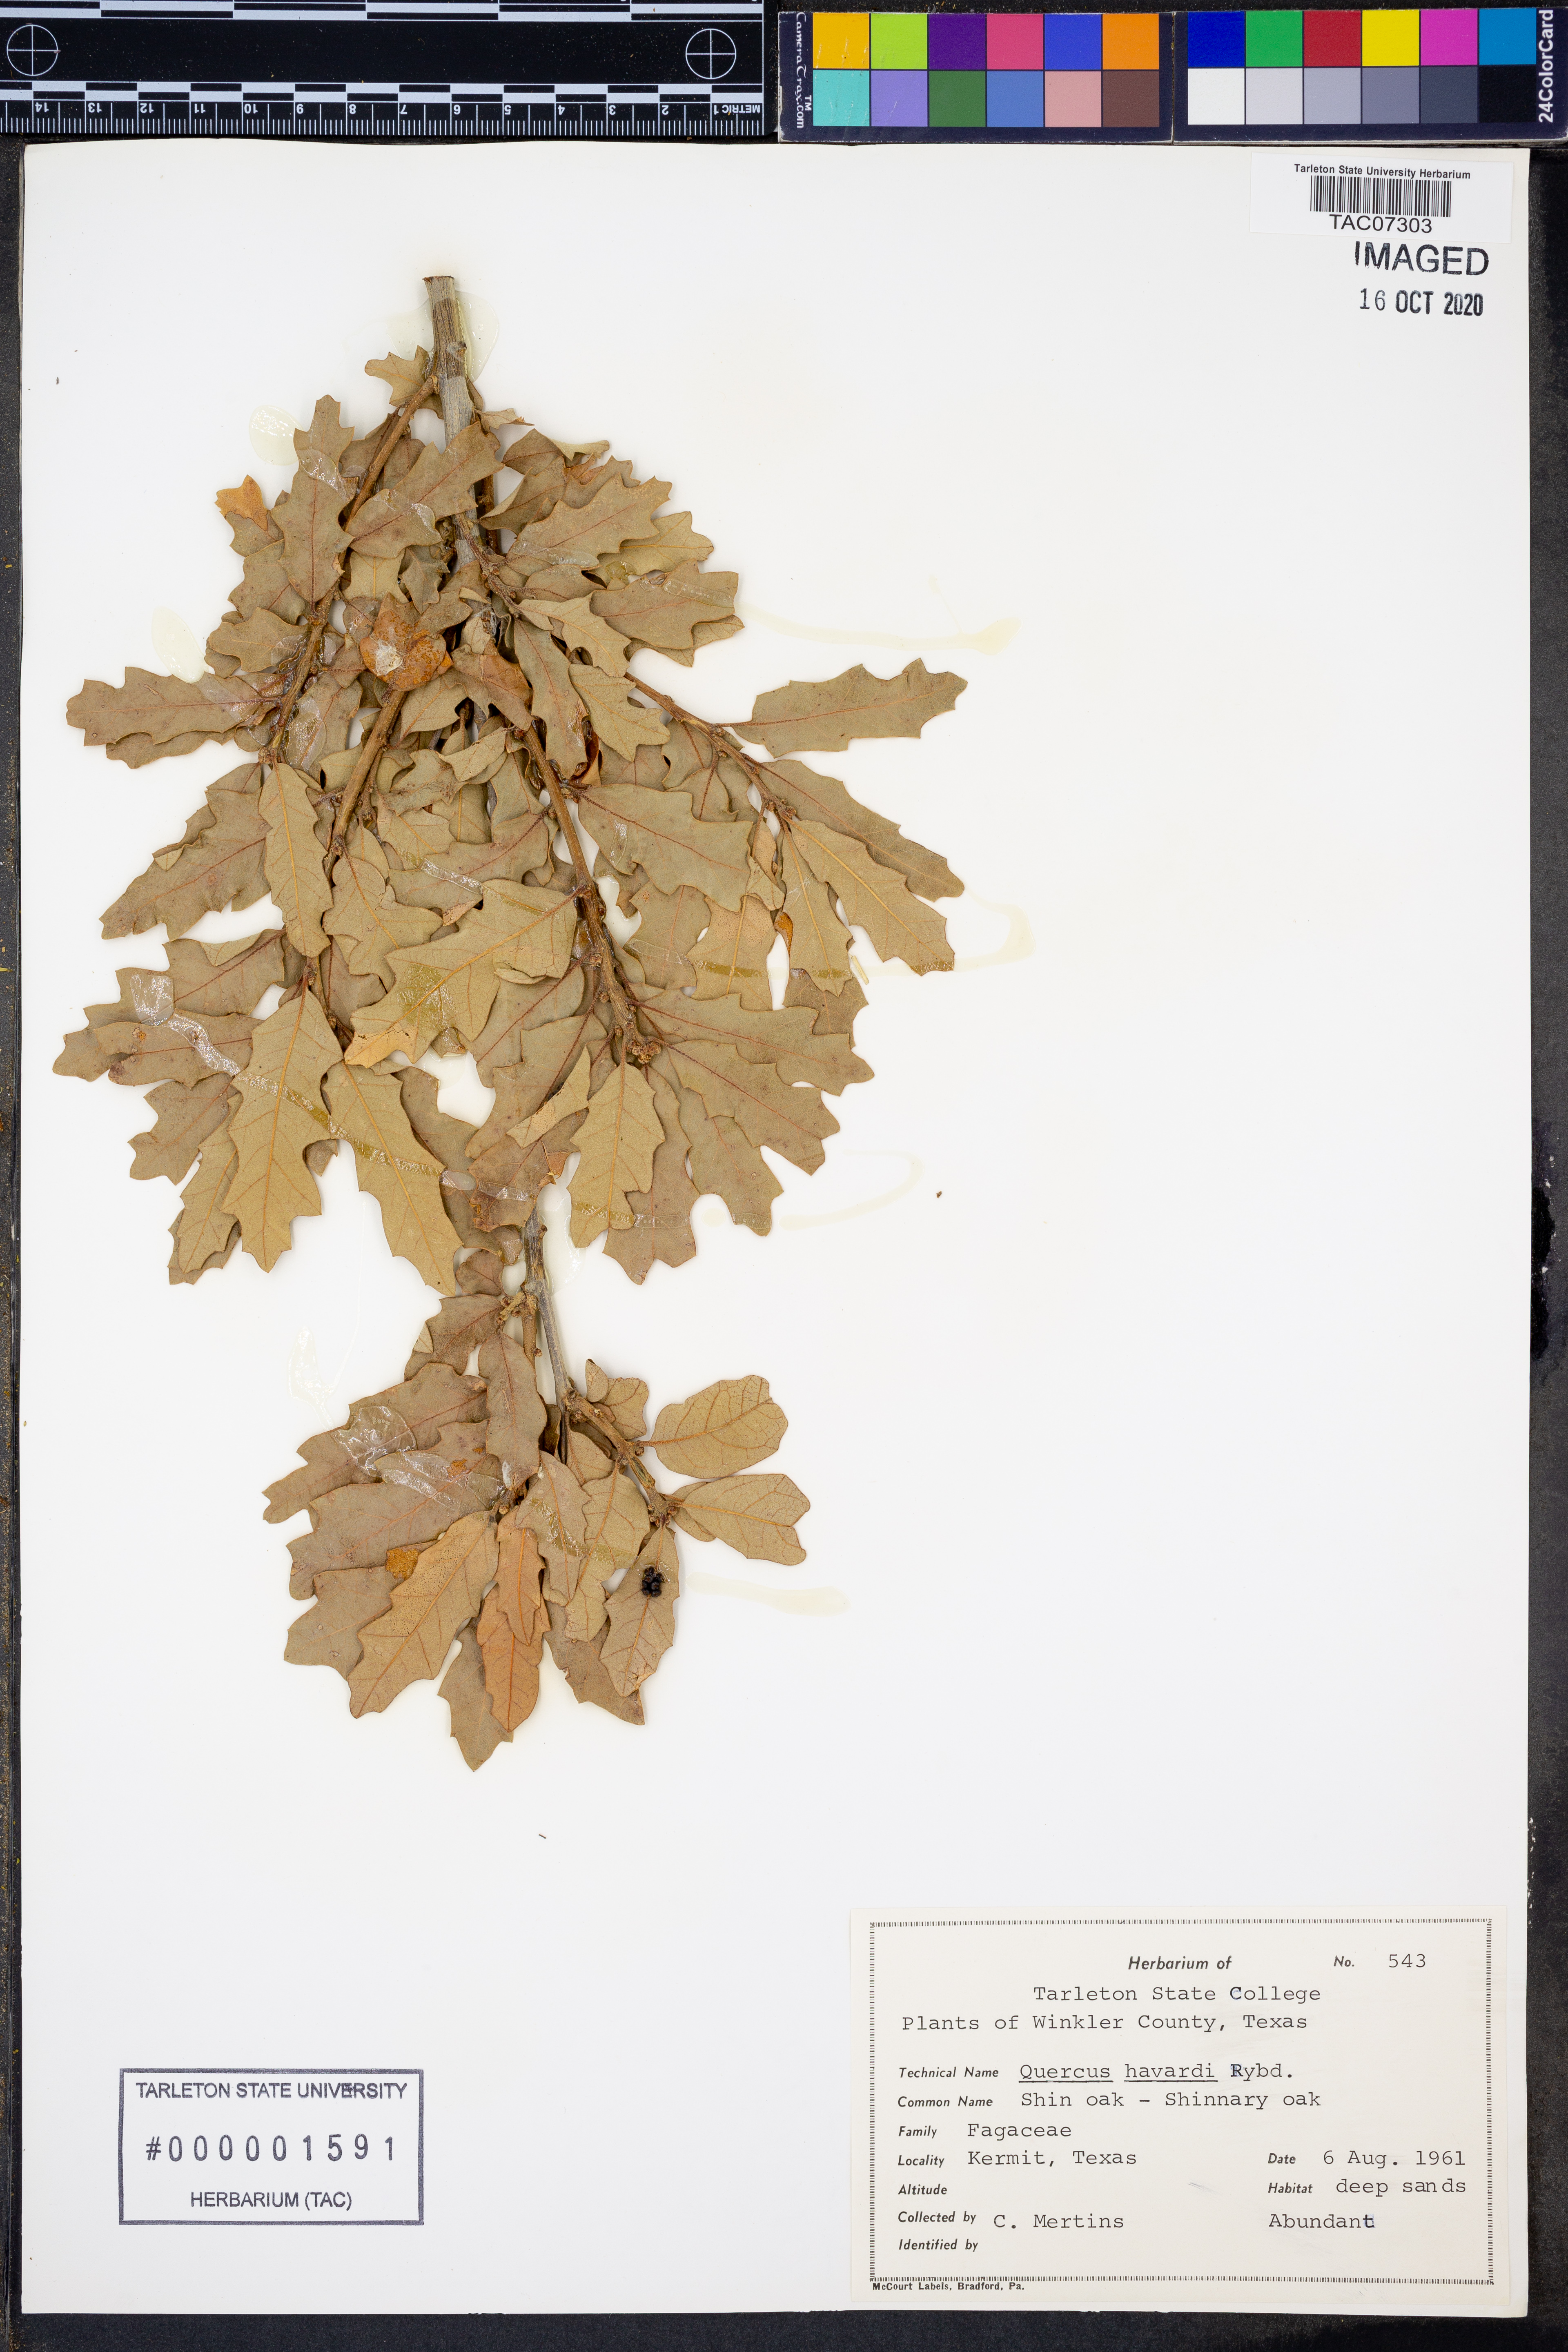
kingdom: Plantae
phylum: Tracheophyta
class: Magnoliopsida
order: Fagales
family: Fagaceae
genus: Quercus
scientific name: Quercus havardii
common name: Shinnery oak
